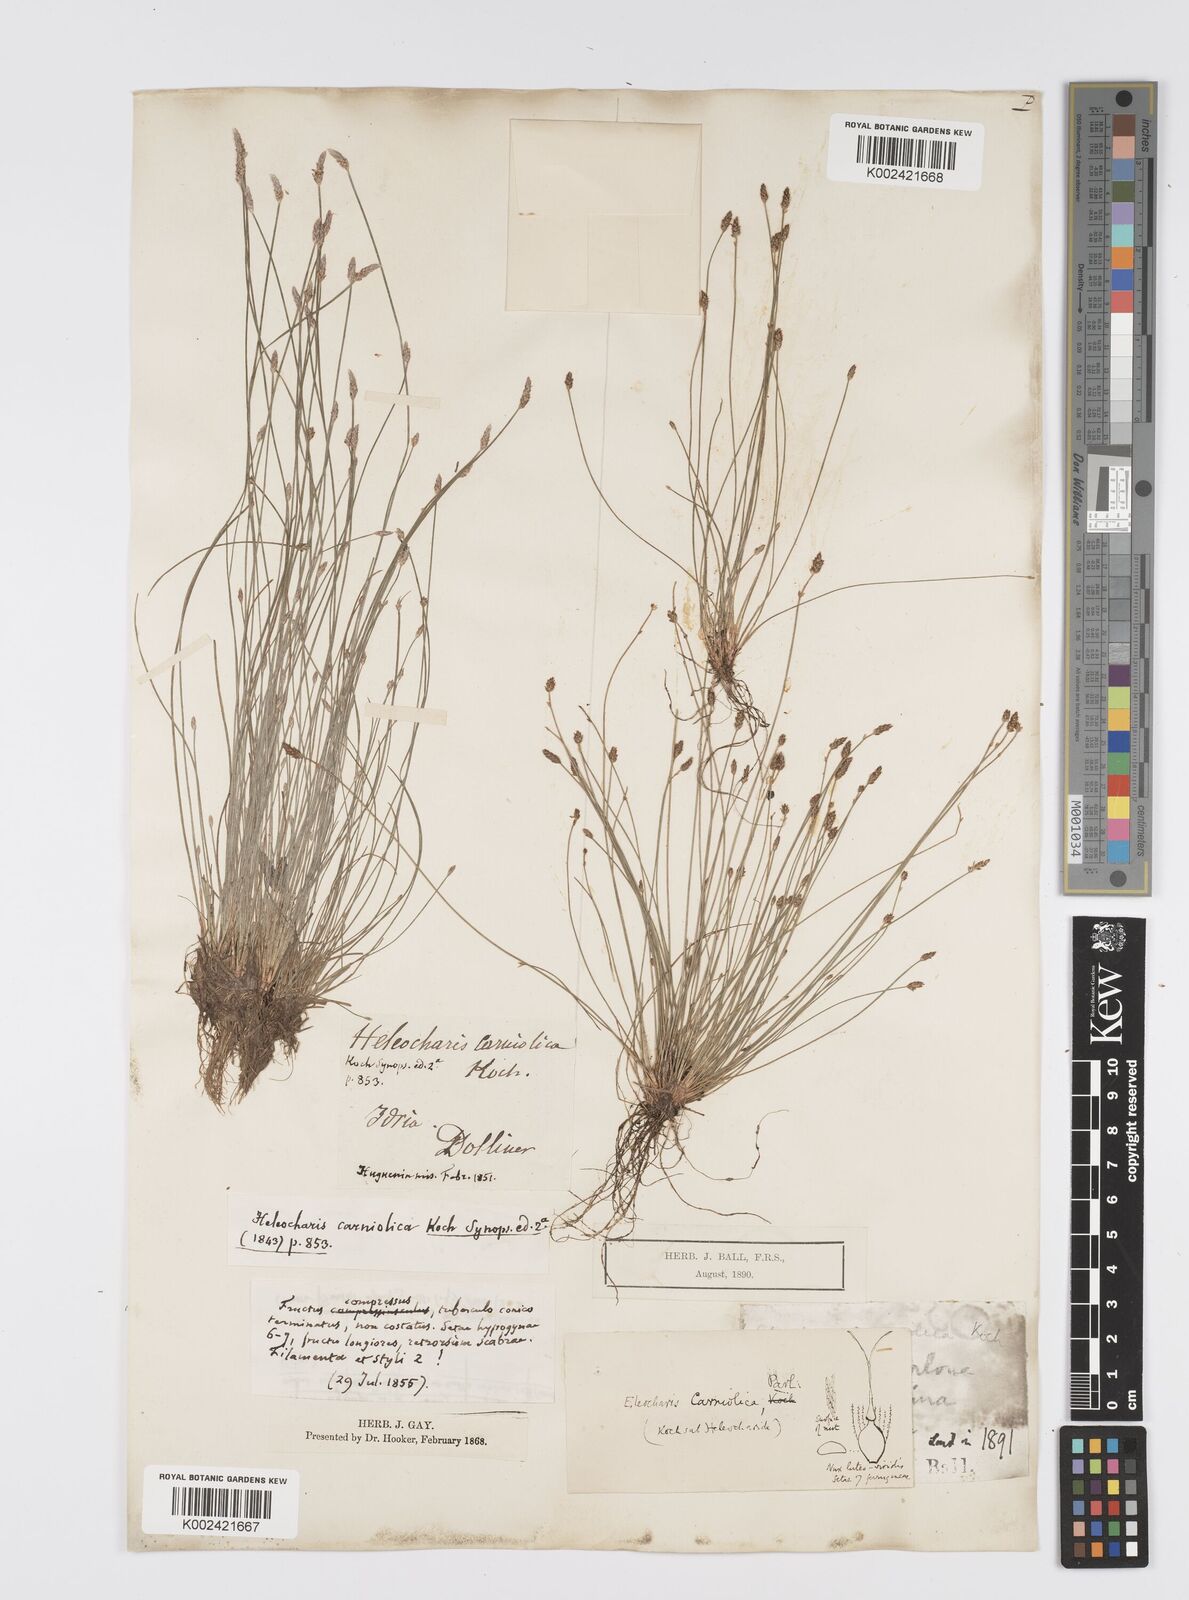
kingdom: Plantae
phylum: Tracheophyta
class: Liliopsida
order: Poales
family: Cyperaceae
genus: Eleocharis
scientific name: Eleocharis carniolica
